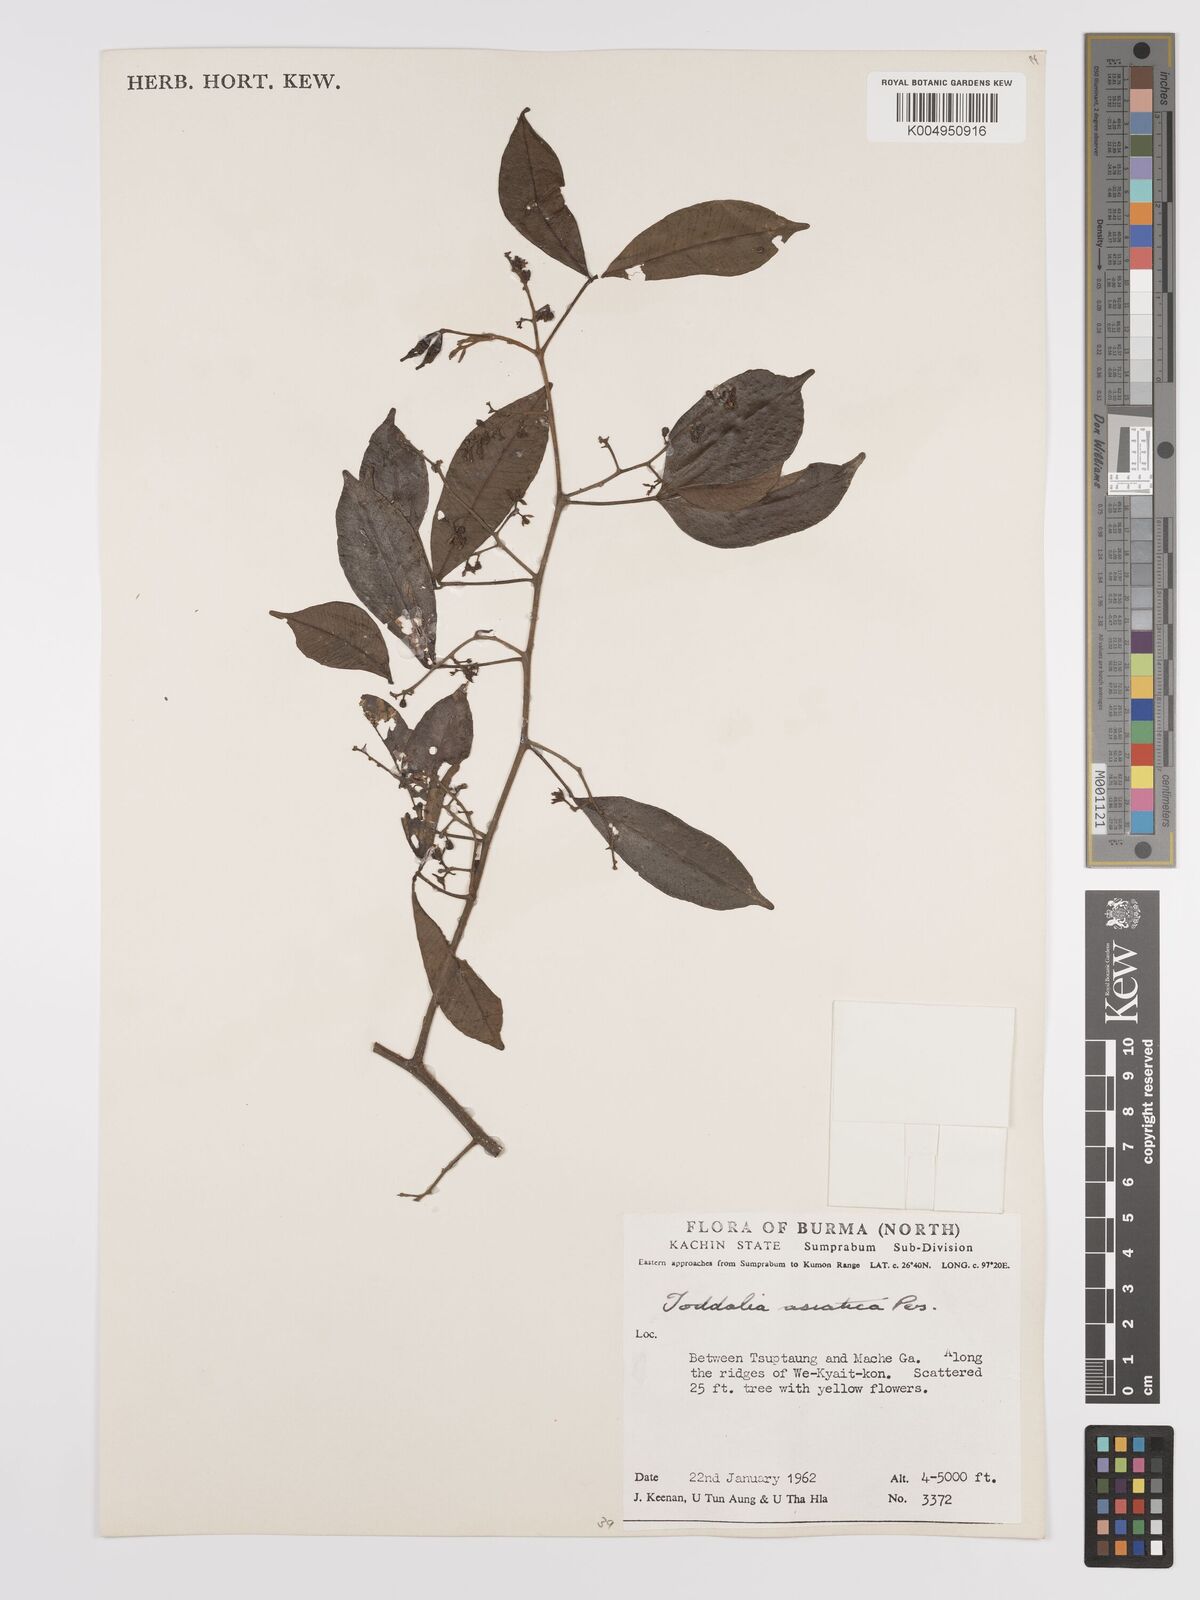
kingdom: Plantae
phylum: Tracheophyta
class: Magnoliopsida
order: Sapindales
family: Rutaceae
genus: Zanthoxylum
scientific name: Zanthoxylum asiaticum
